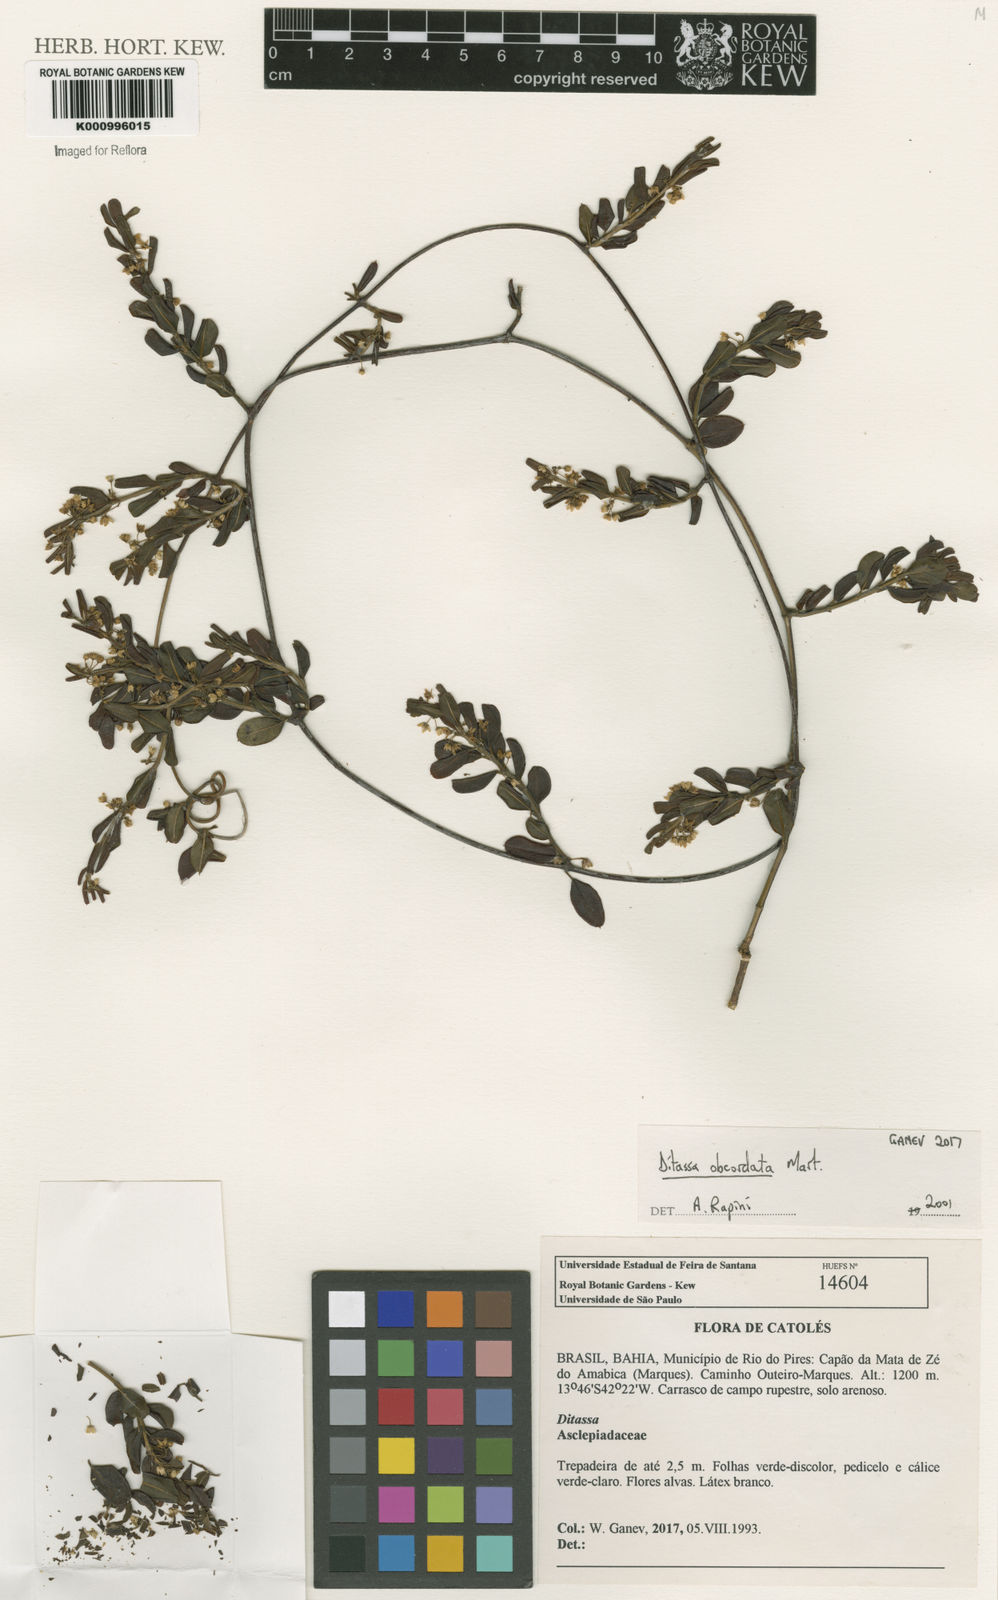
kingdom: Plantae
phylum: Tracheophyta
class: Magnoliopsida
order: Gentianales
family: Apocynaceae
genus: Ditassa
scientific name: Ditassa obcordata
